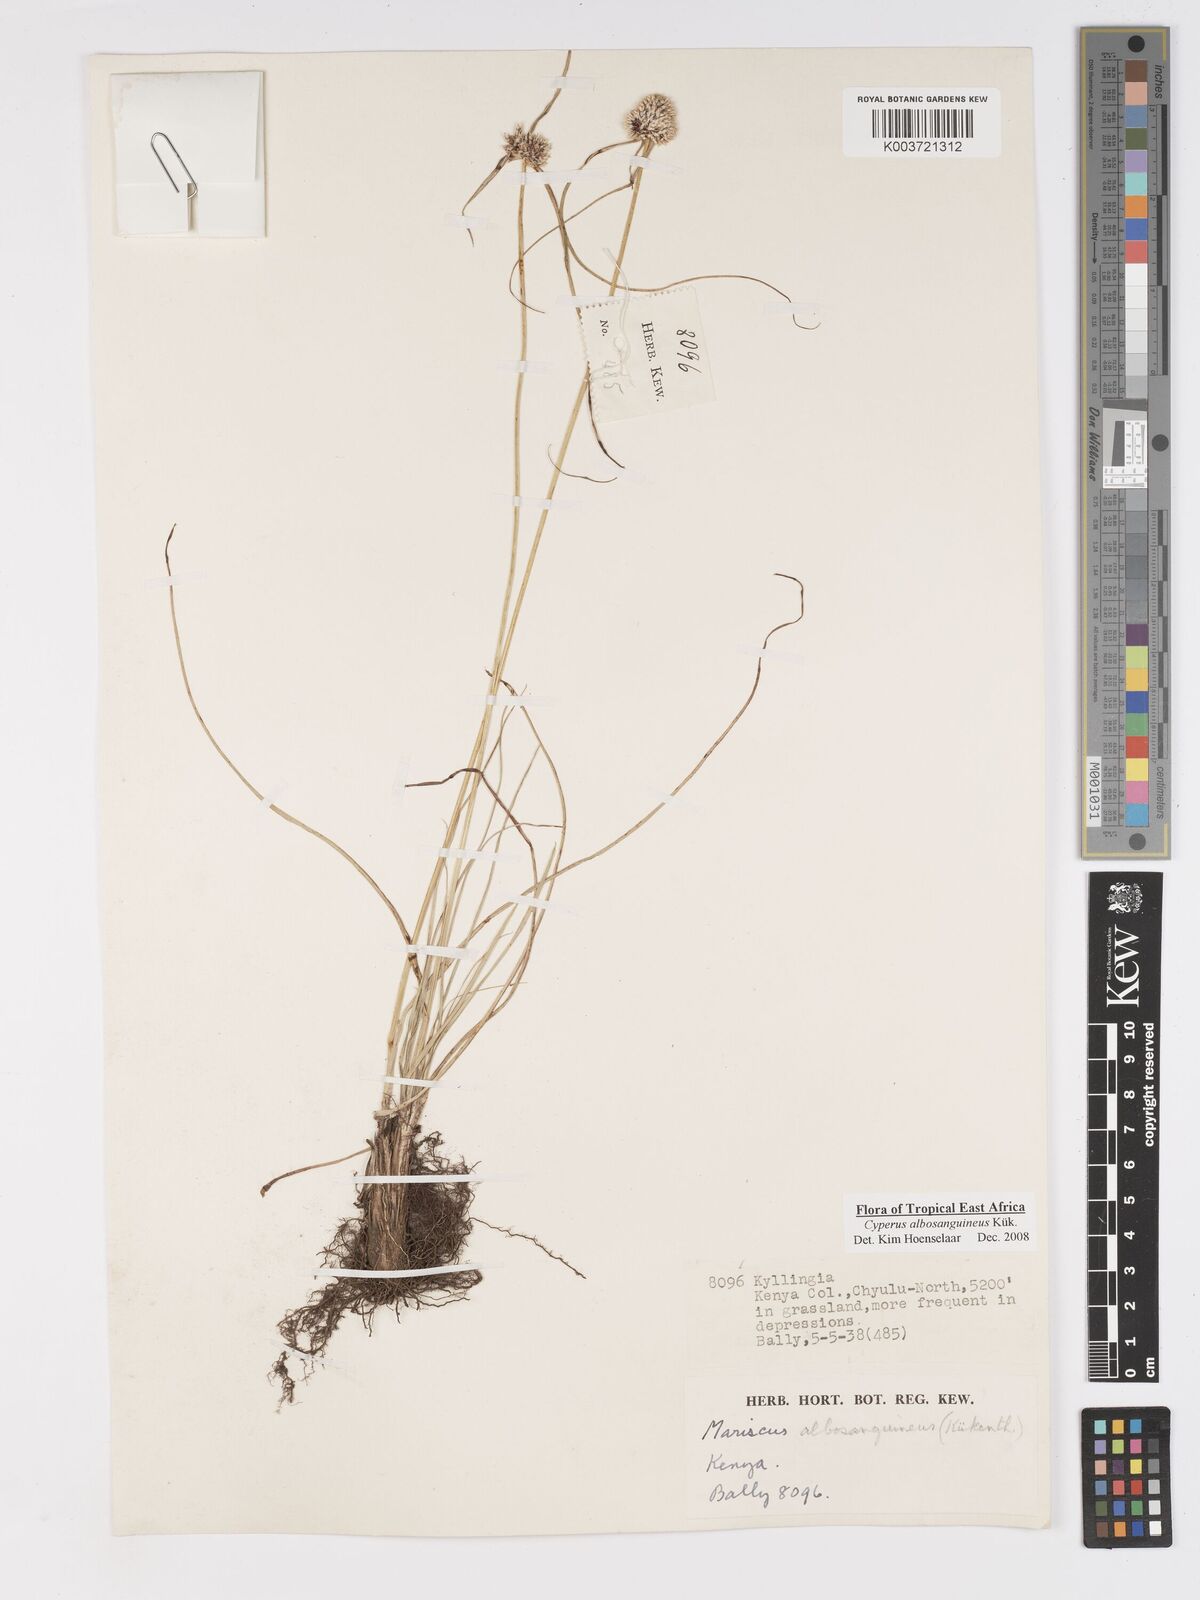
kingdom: Plantae
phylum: Tracheophyta
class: Liliopsida
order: Poales
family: Cyperaceae
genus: Cyperus
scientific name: Cyperus albosanguineus
